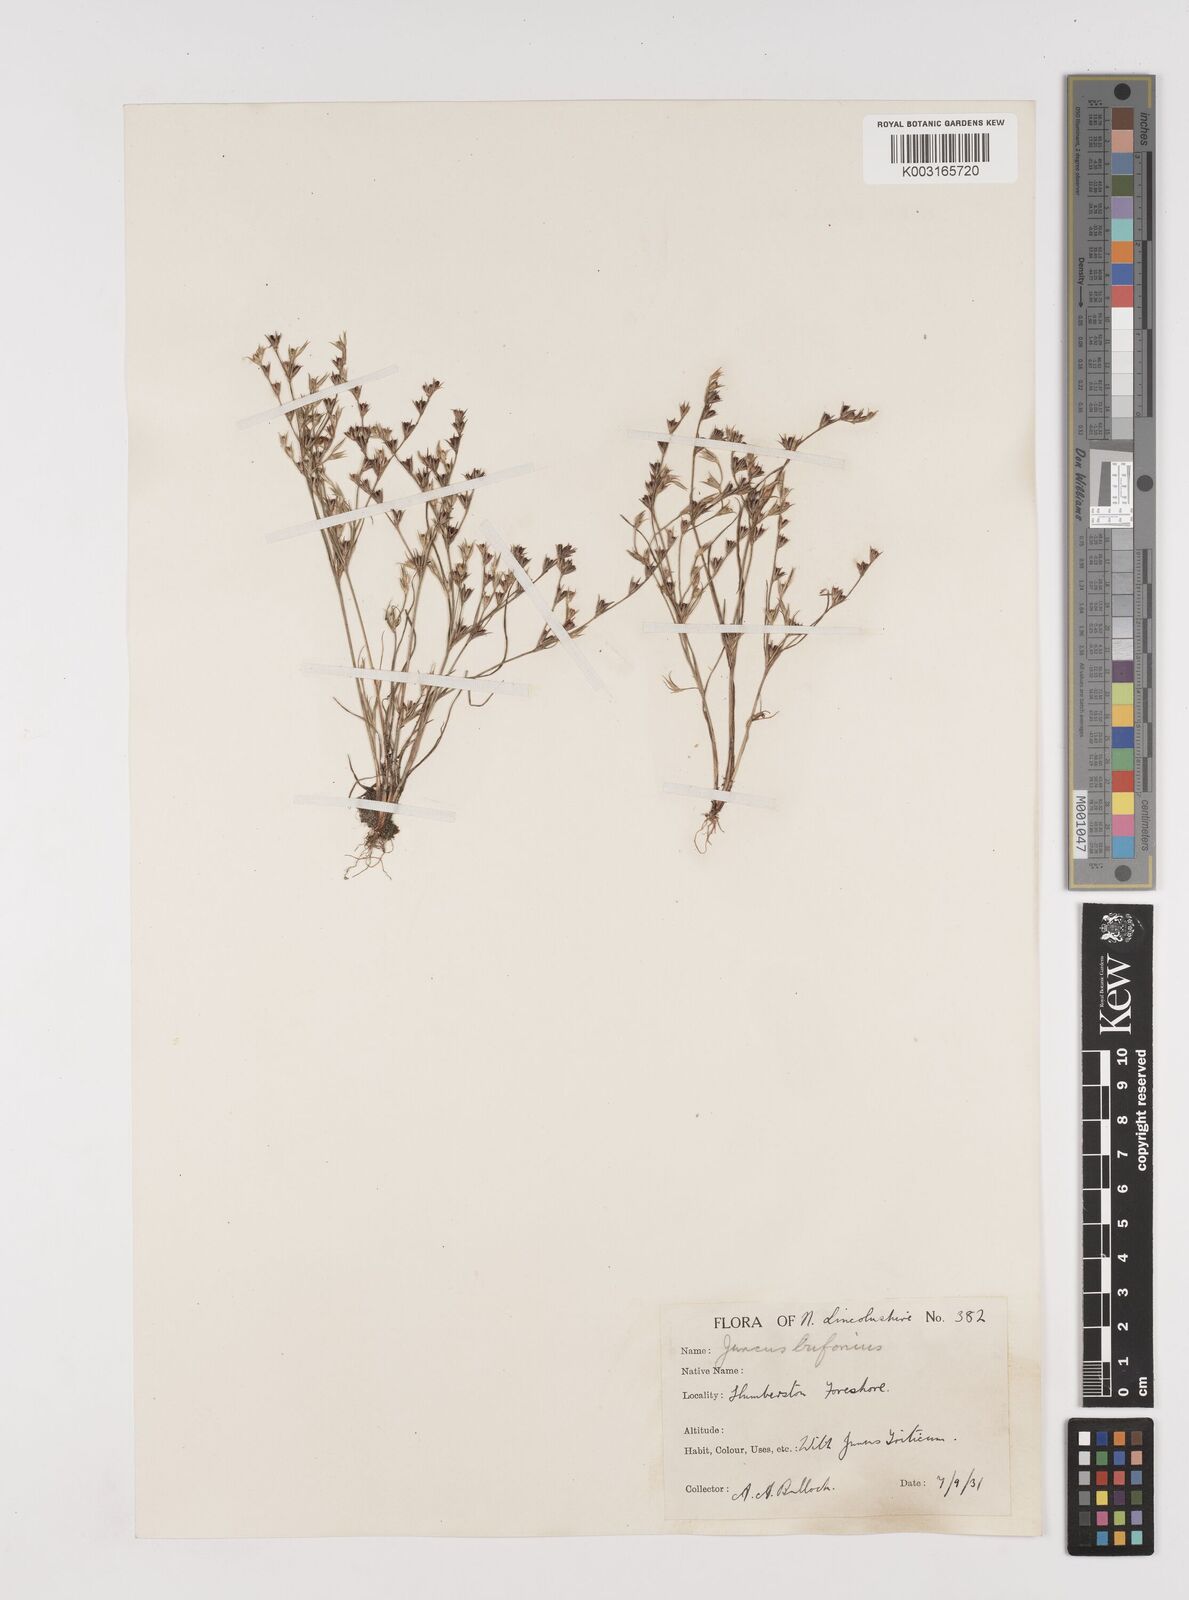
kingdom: Plantae
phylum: Tracheophyta
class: Liliopsida
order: Poales
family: Juncaceae
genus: Juncus
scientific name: Juncus bufonius
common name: Toad rush
